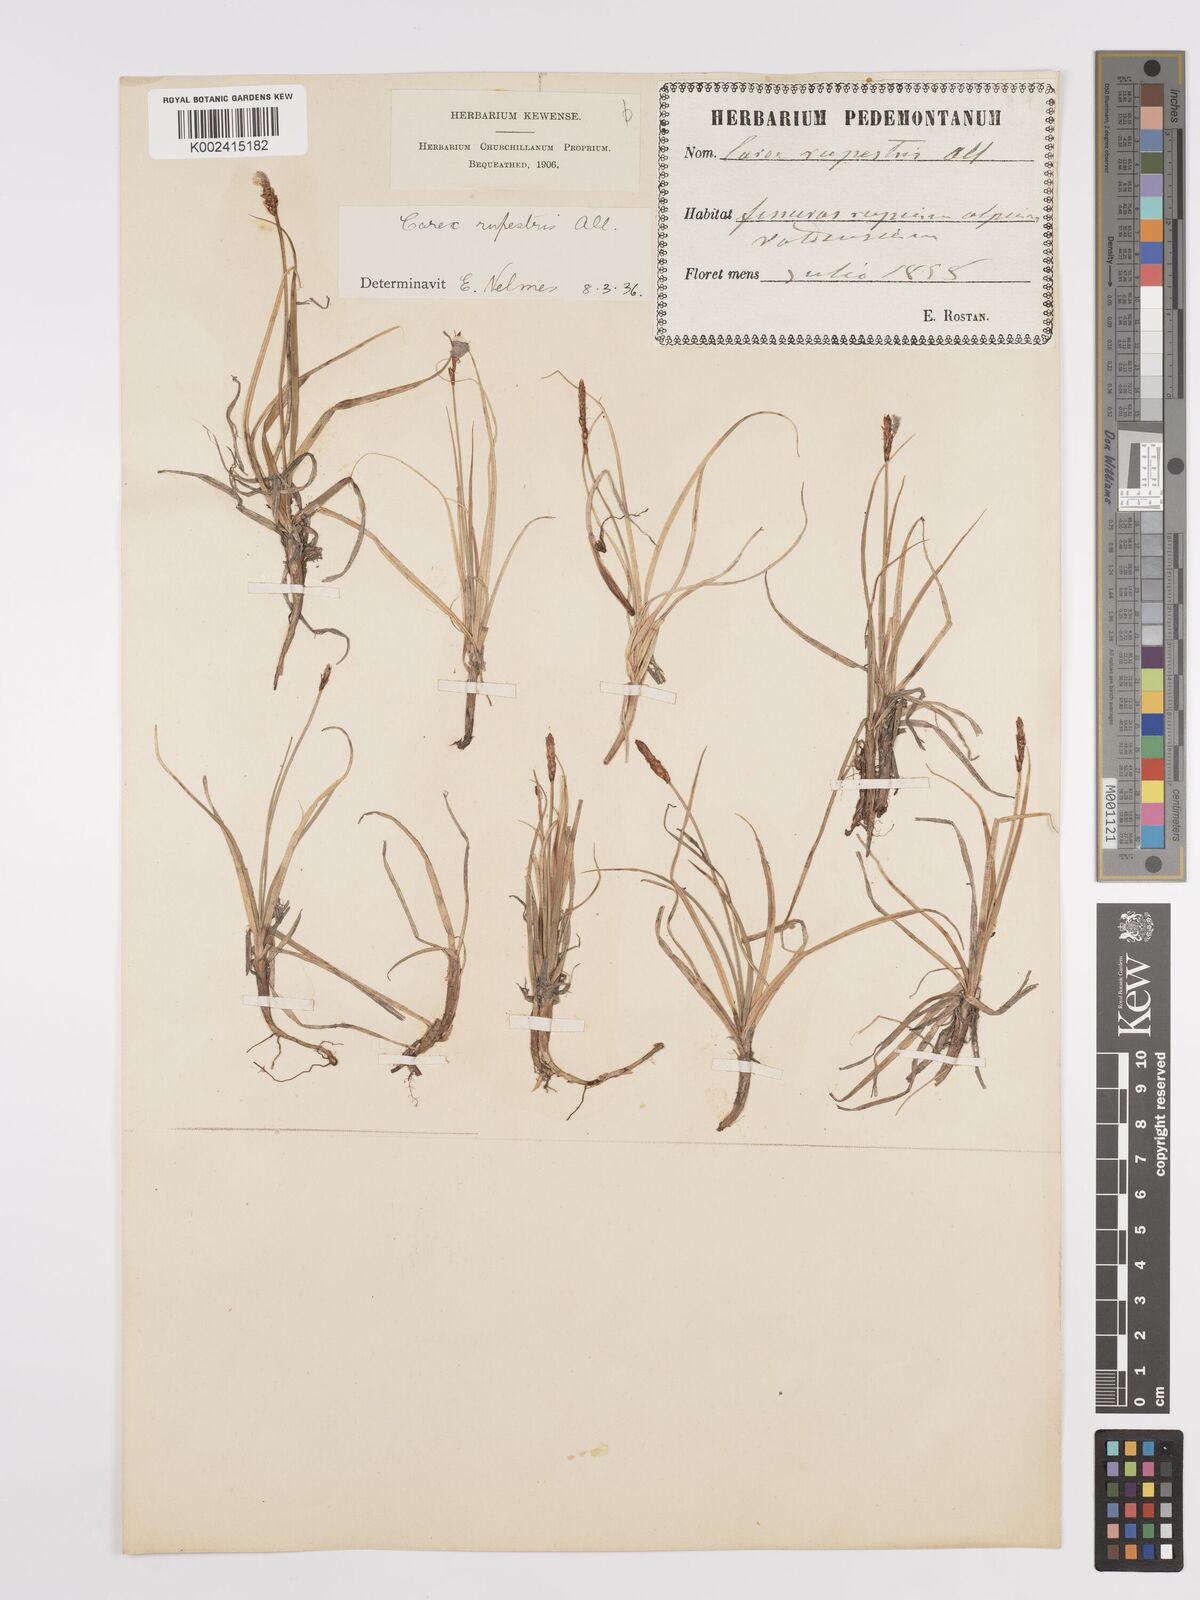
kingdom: Plantae
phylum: Tracheophyta
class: Liliopsida
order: Poales
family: Cyperaceae
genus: Carex
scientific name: Carex rupestris
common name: Rock sedge
